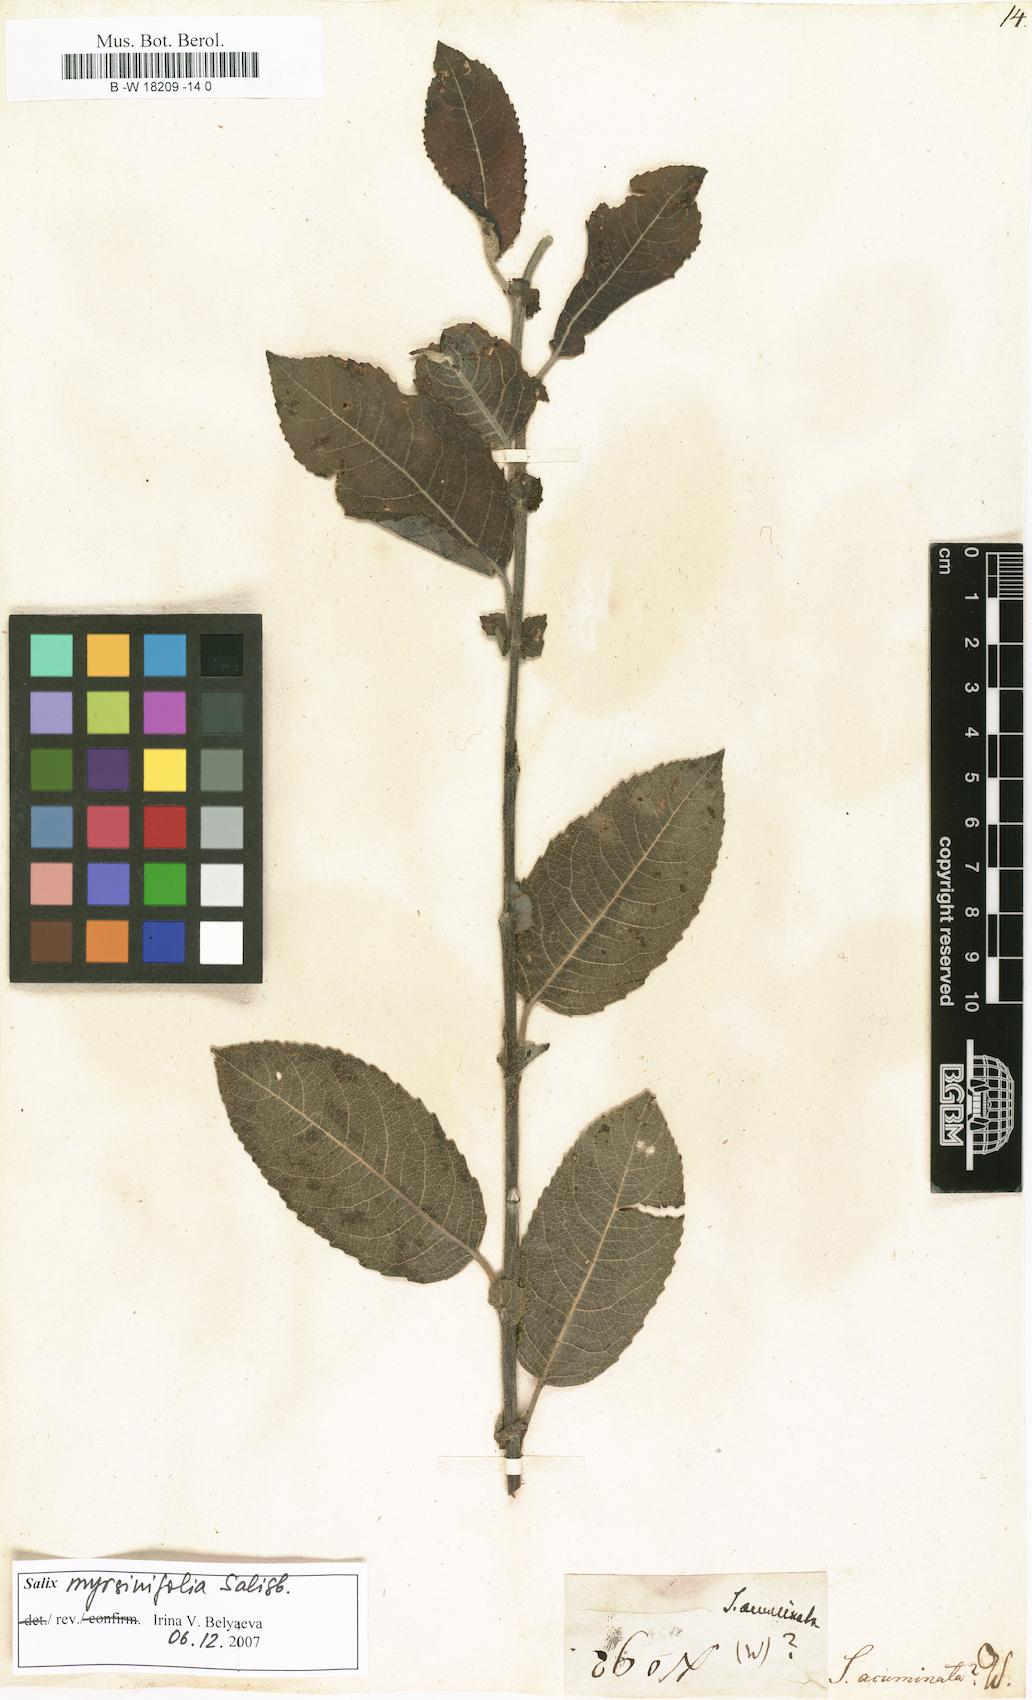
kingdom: Plantae
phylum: Tracheophyta
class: Magnoliopsida
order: Malpighiales
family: Salicaceae
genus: Salix
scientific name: Salix
